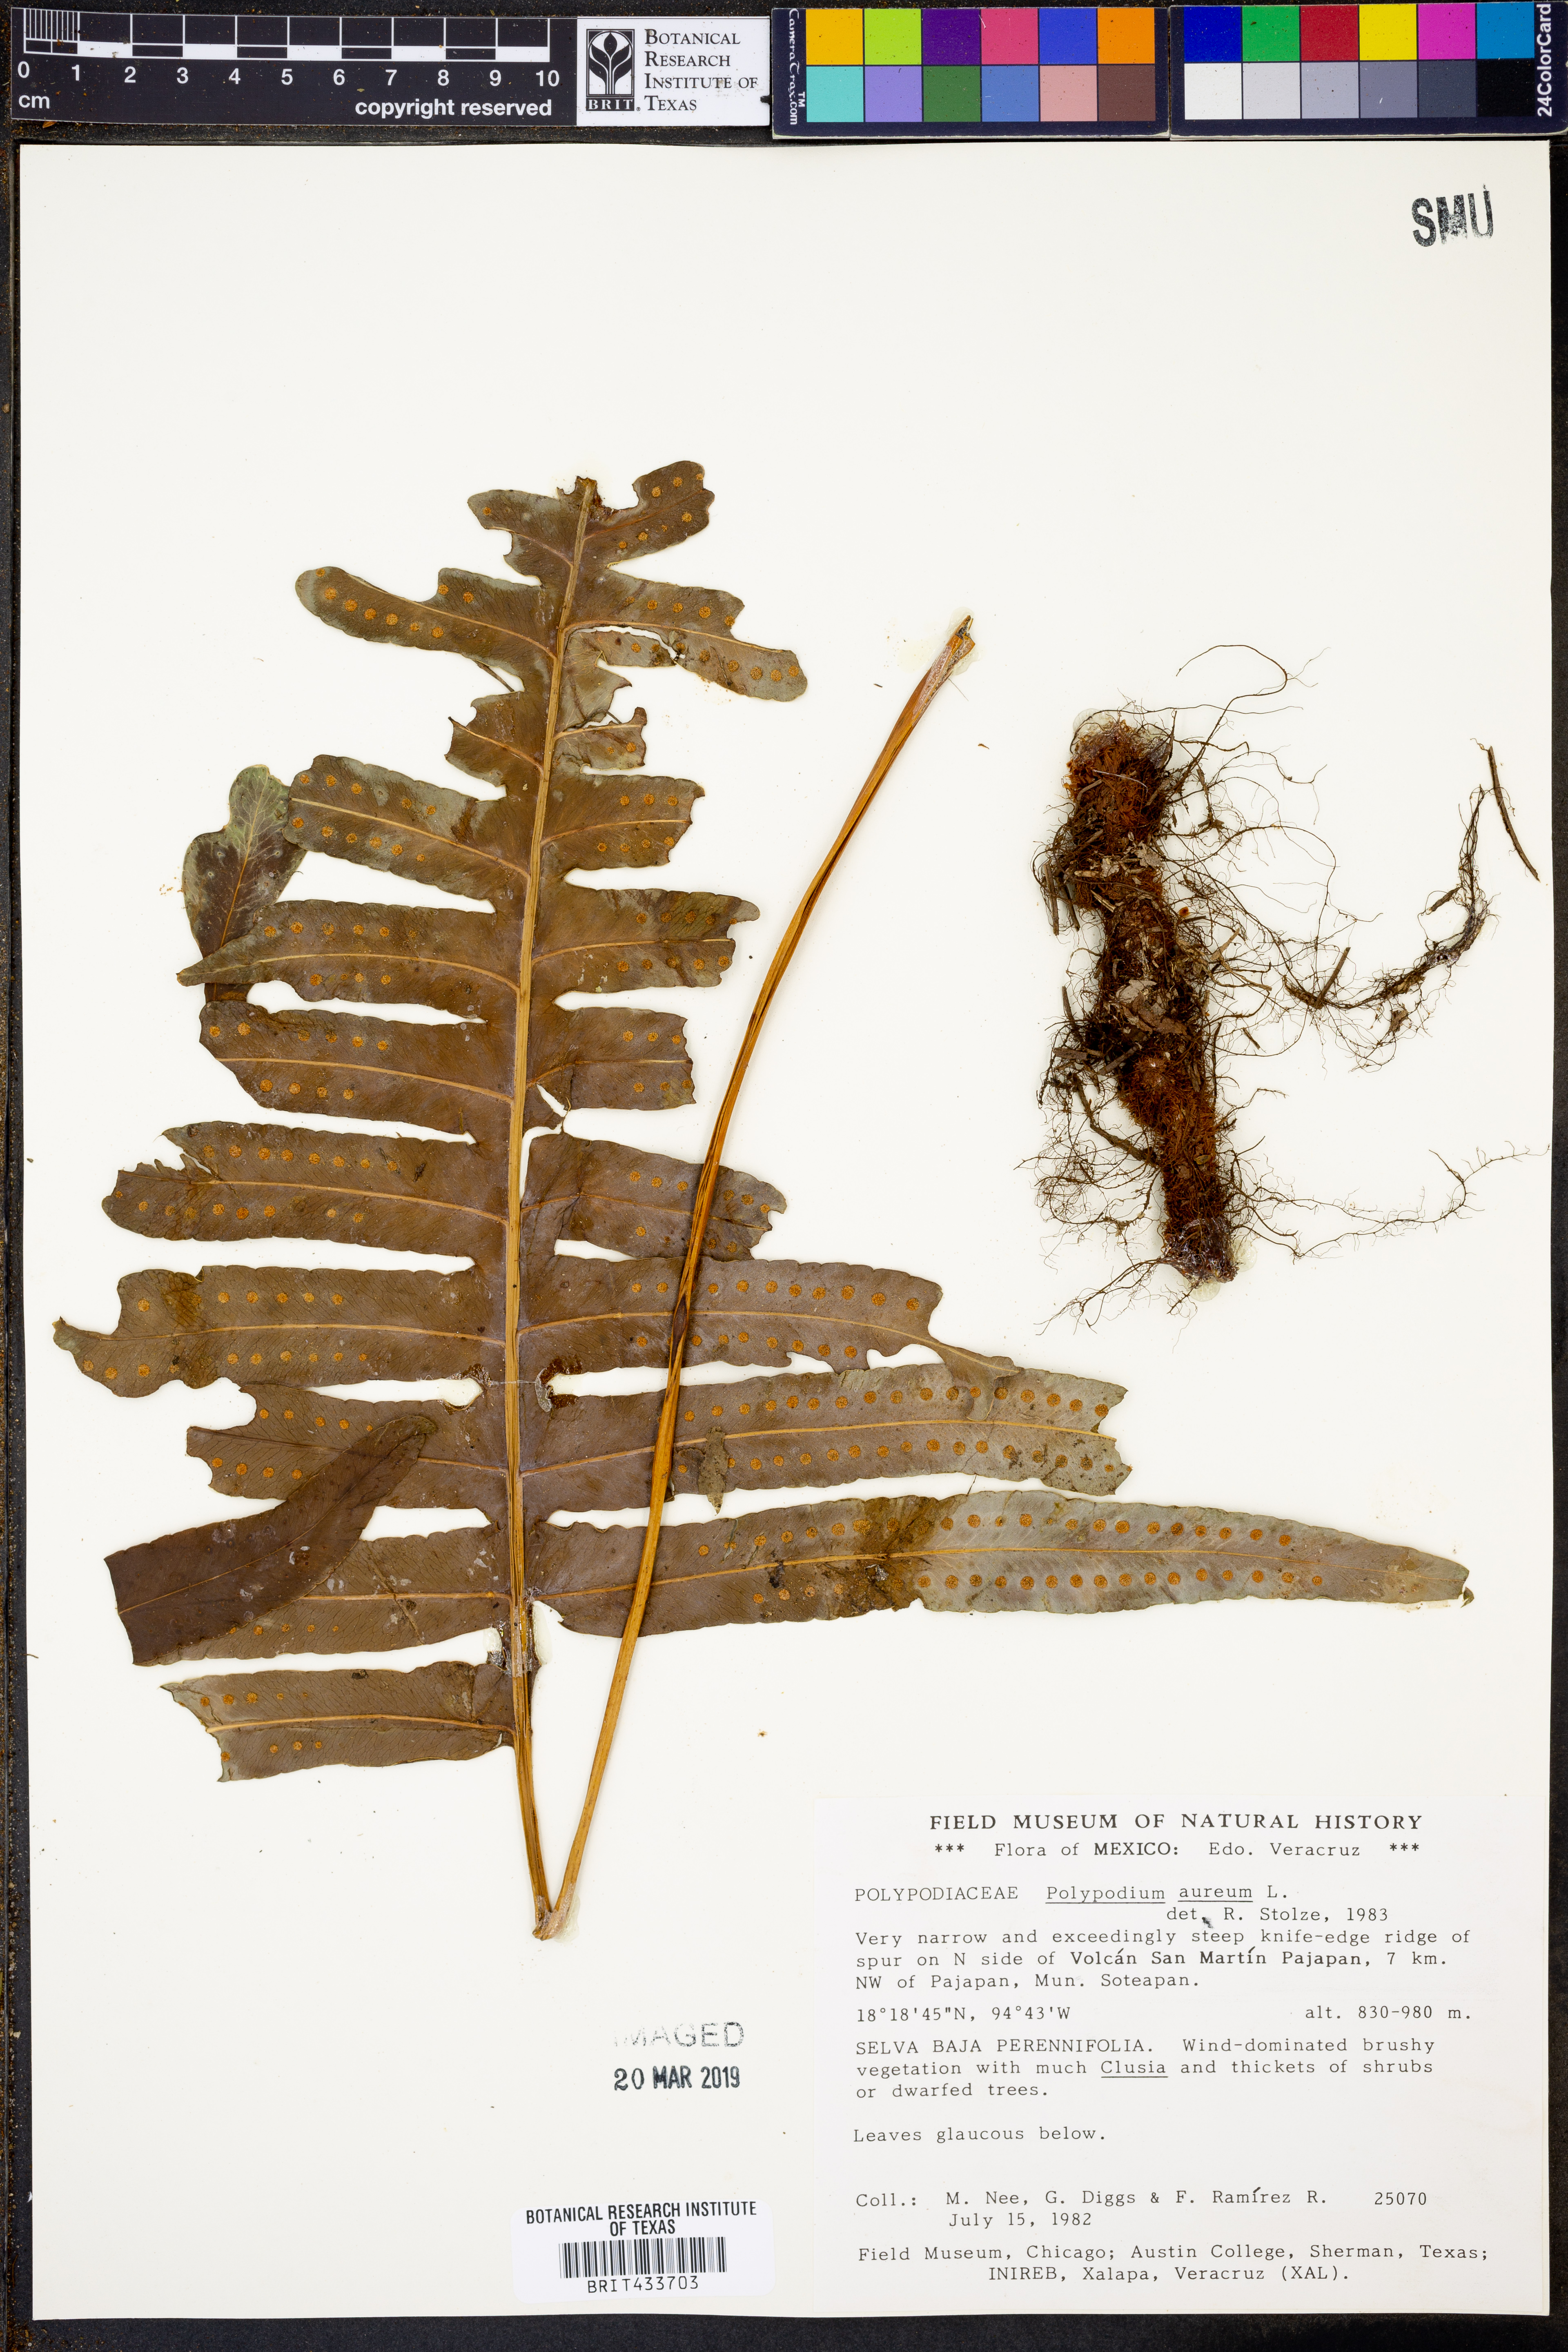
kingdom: Plantae
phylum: Tracheophyta
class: Polypodiopsida
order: Polypodiales
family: Polypodiaceae
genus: Phlebodium
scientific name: Phlebodium aureum
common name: Gold-foot fern
